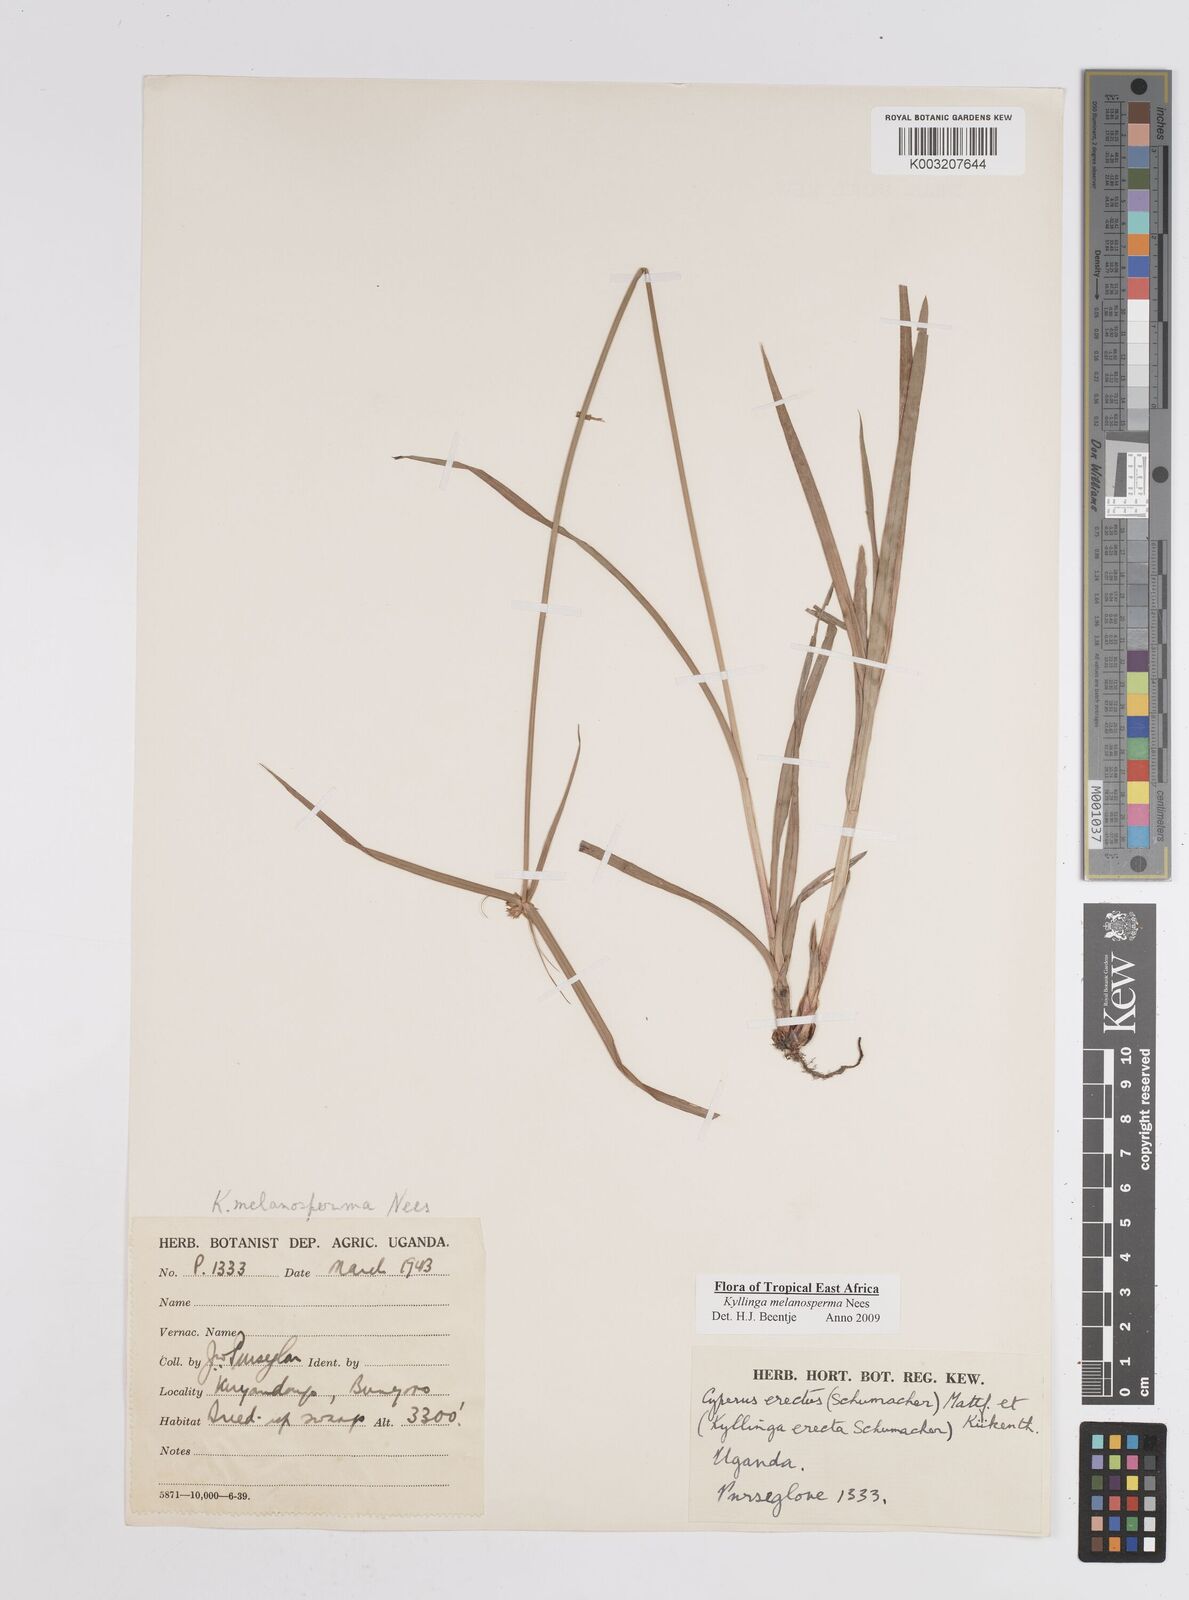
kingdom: Plantae
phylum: Tracheophyta
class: Liliopsida
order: Poales
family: Cyperaceae
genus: Cyperus
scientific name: Cyperus melanospermus
